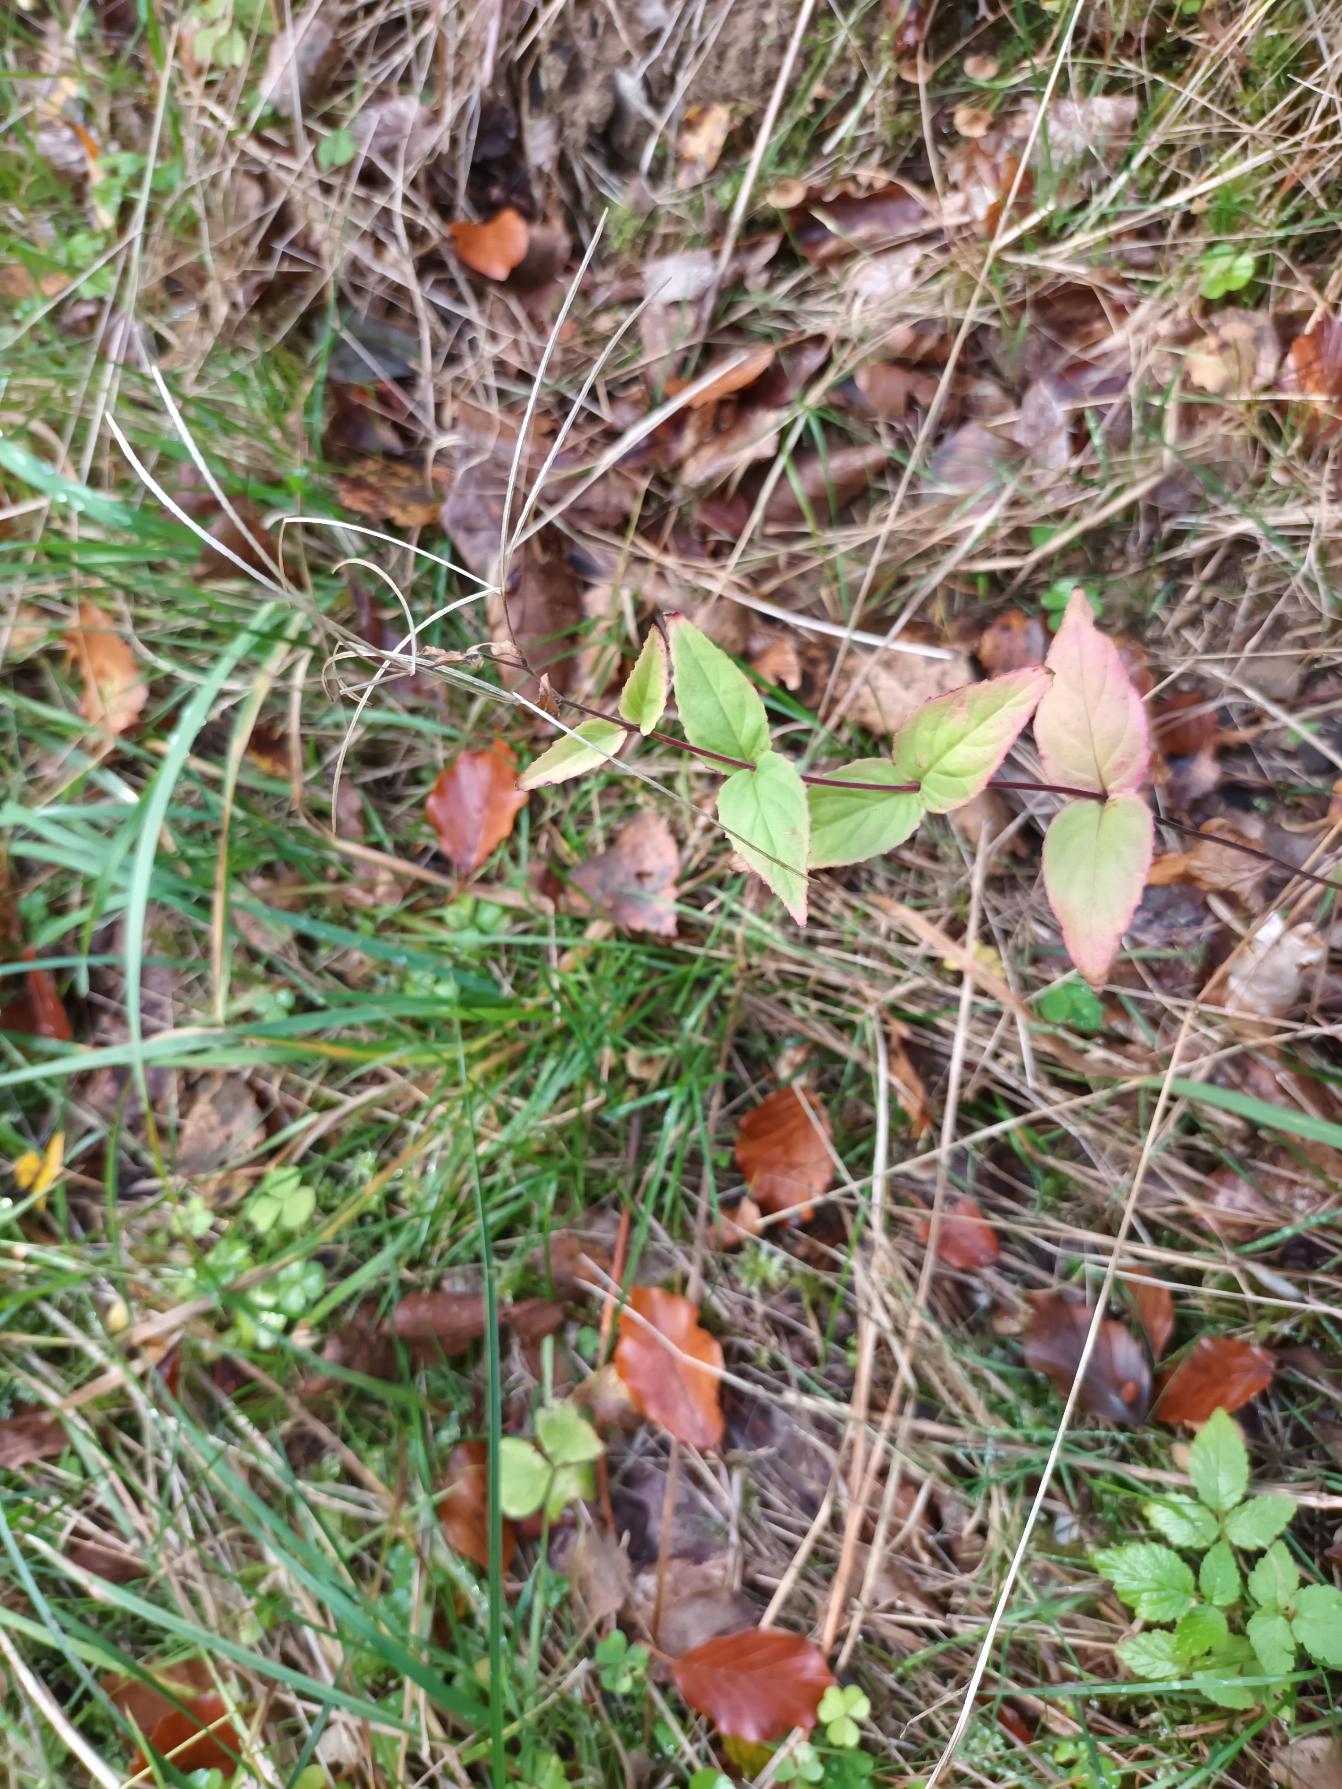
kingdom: Plantae
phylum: Tracheophyta
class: Magnoliopsida
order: Myrtales
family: Onagraceae
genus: Epilobium
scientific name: Epilobium montanum
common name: Glat dueurt
